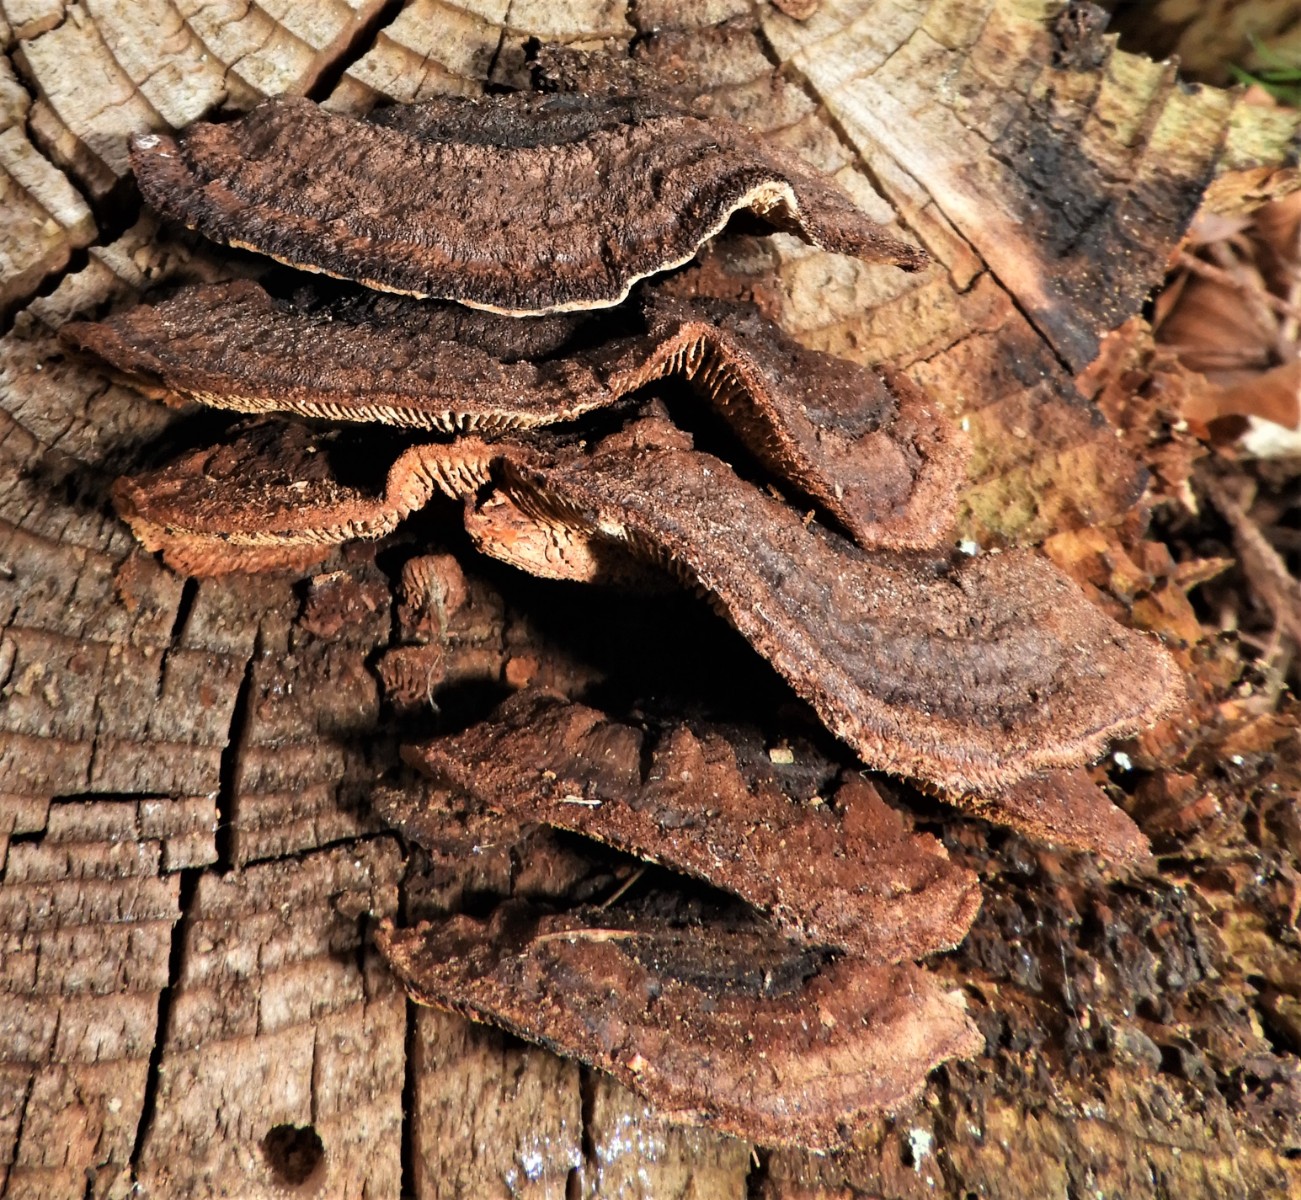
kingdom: Fungi
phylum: Basidiomycota
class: Agaricomycetes
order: Gloeophyllales
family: Gloeophyllaceae
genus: Gloeophyllum
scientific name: Gloeophyllum sepiarium
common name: fyrre-korkhat
